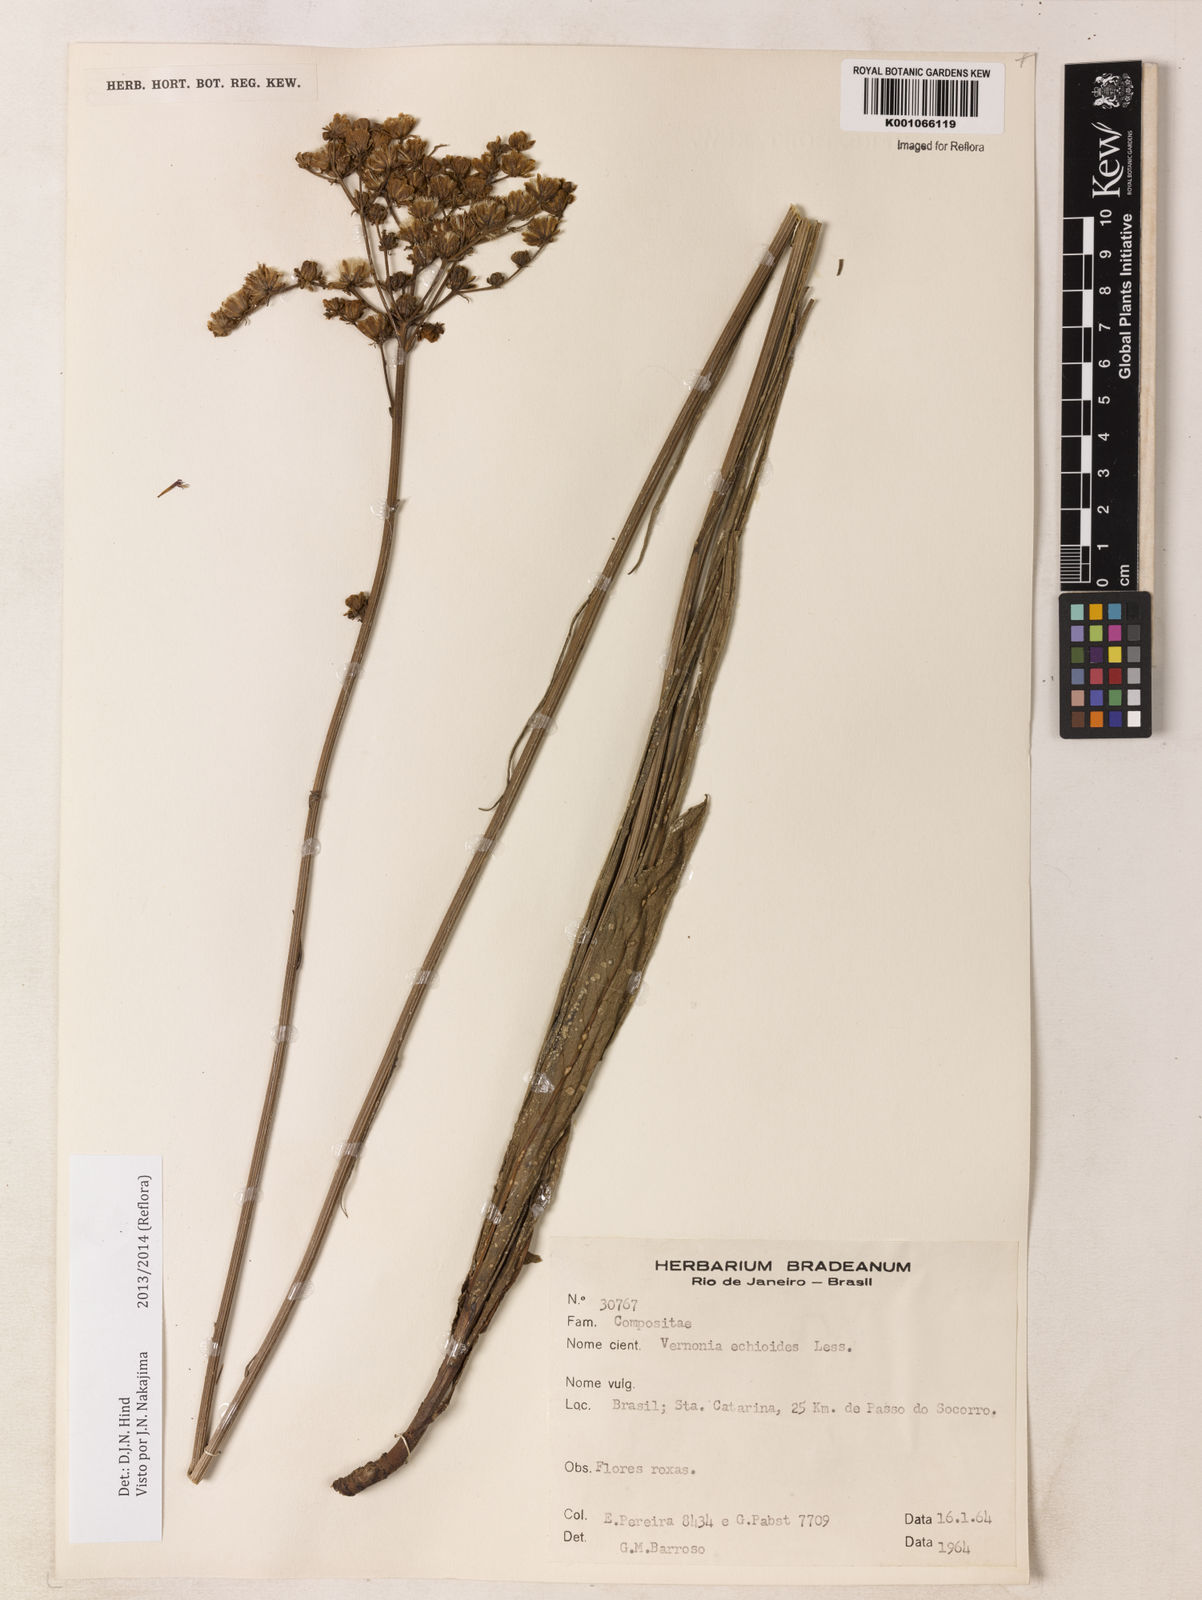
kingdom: Plantae
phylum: Tracheophyta
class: Magnoliopsida
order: Asterales
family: Asteraceae
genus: Vernonia
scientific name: Vernonia echioides
